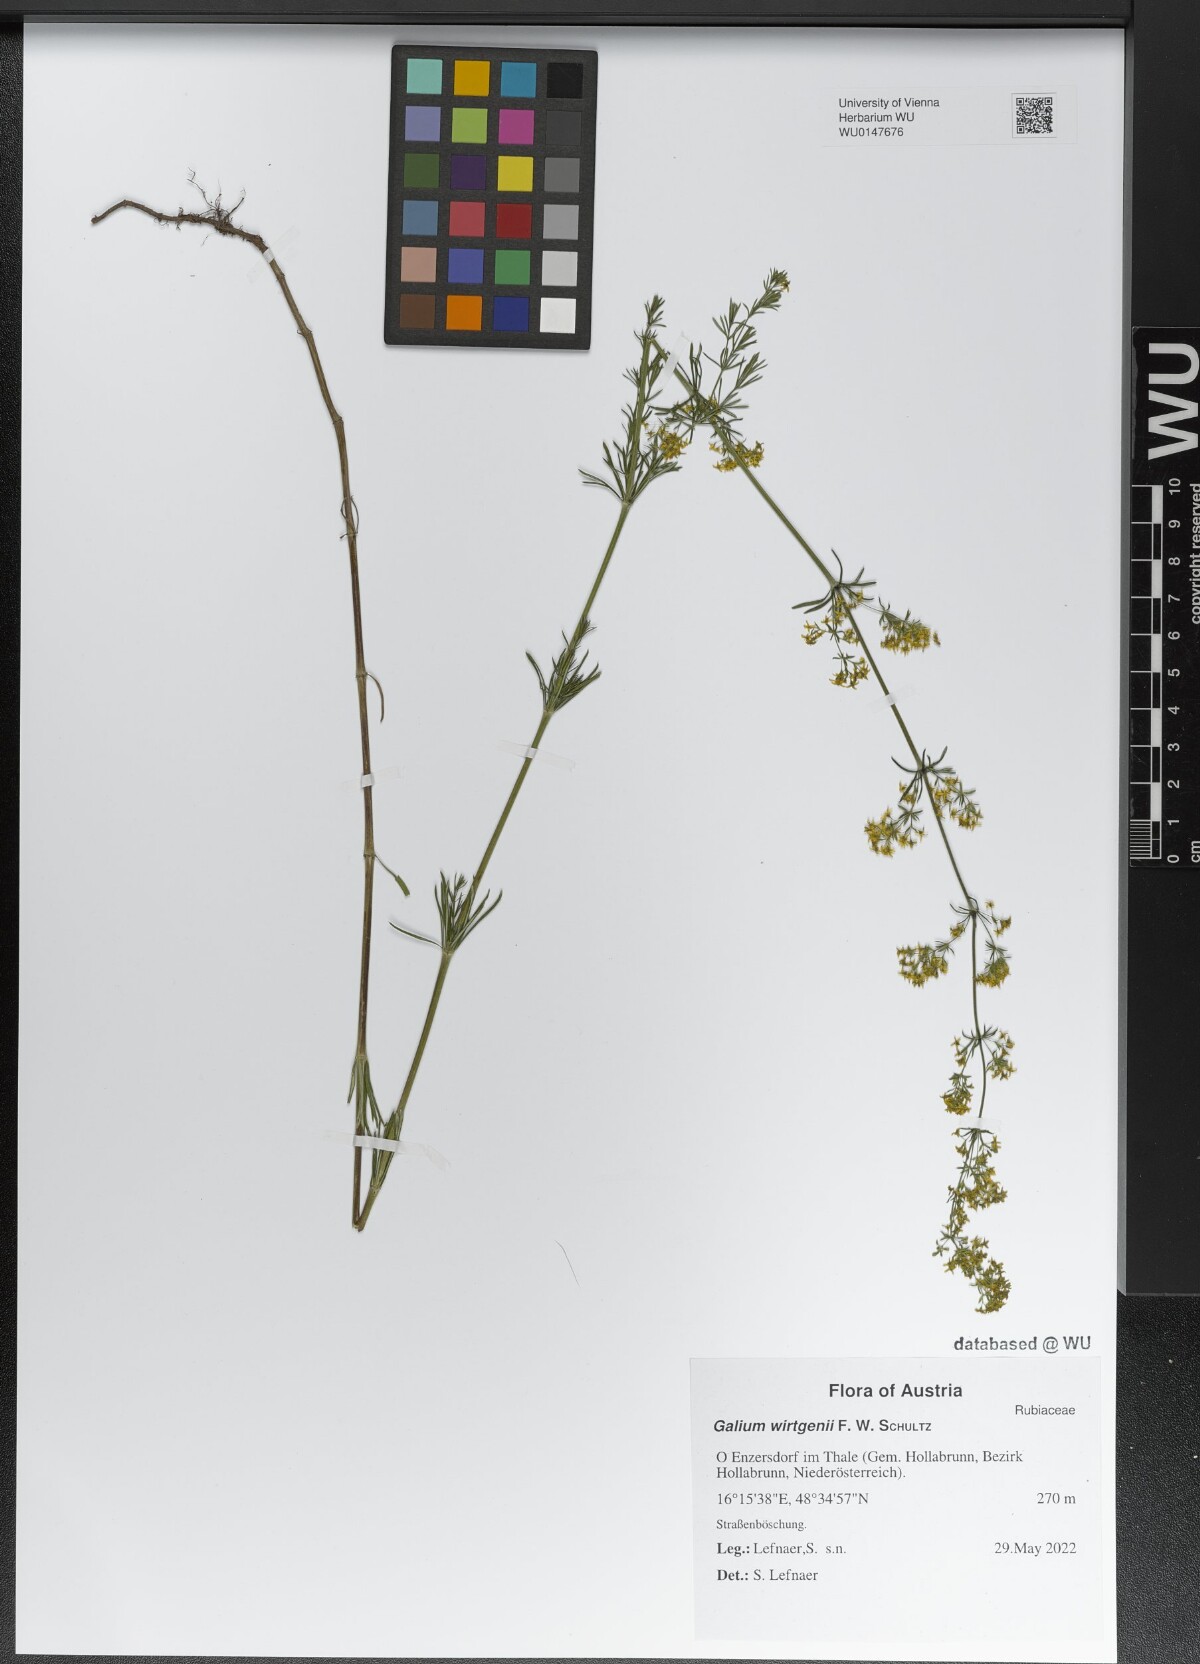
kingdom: Plantae
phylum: Tracheophyta
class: Magnoliopsida
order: Gentianales
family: Rubiaceae
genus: Galium
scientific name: Galium verum
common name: Lady's bedstraw
